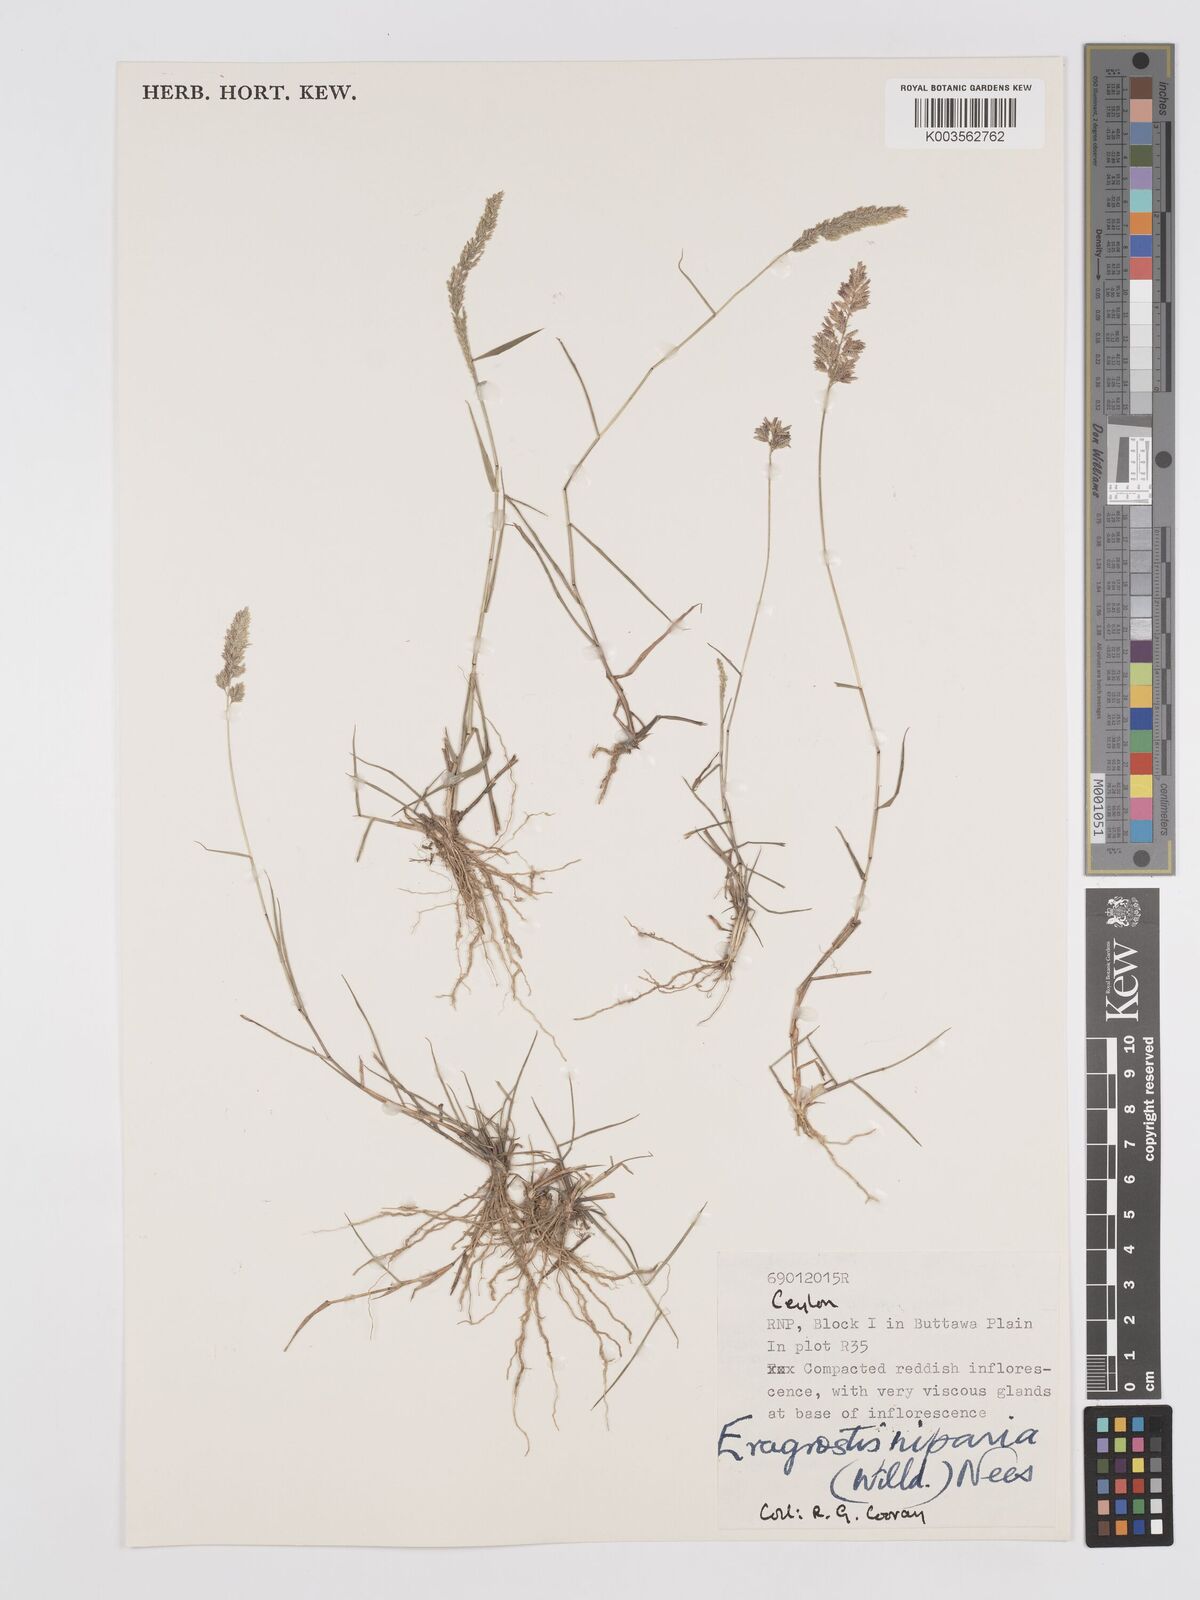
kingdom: Plantae
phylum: Tracheophyta
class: Liliopsida
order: Poales
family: Poaceae
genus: Eragrostis
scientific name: Eragrostis riparia
